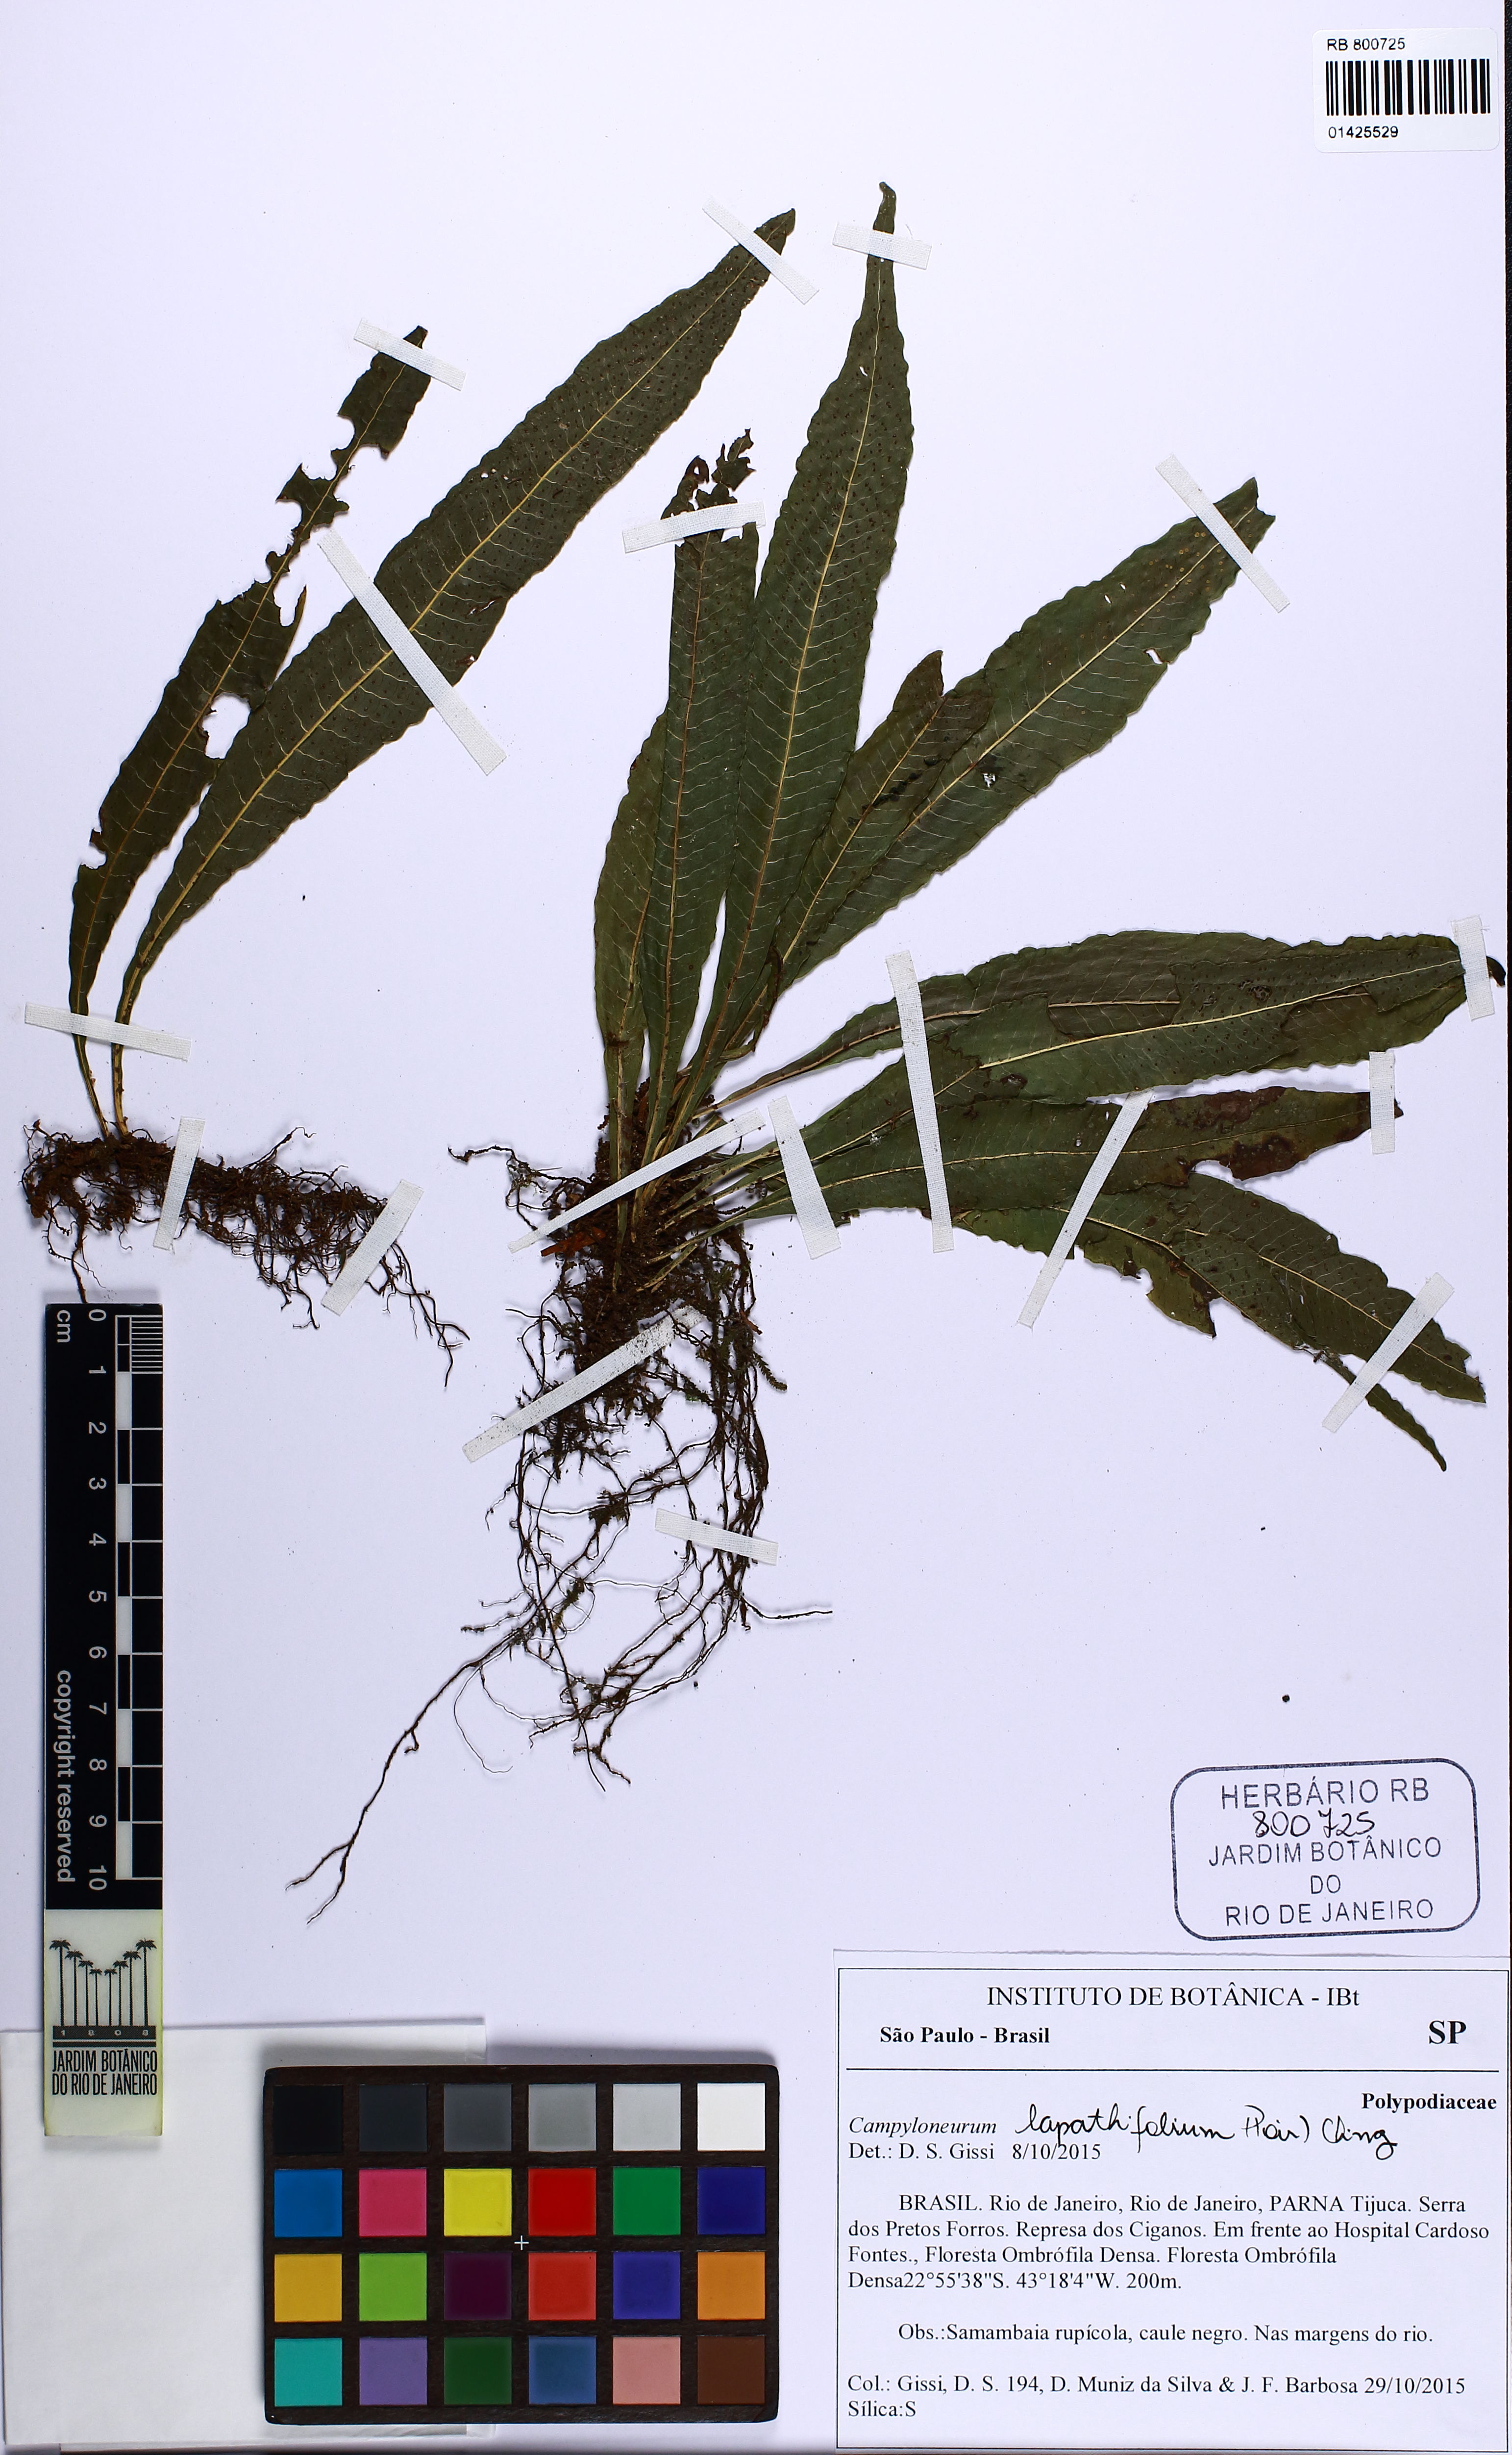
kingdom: Plantae
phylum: Tracheophyta
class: Polypodiopsida
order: Polypodiales
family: Polypodiaceae
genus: Campyloneurum
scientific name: Campyloneurum repens
